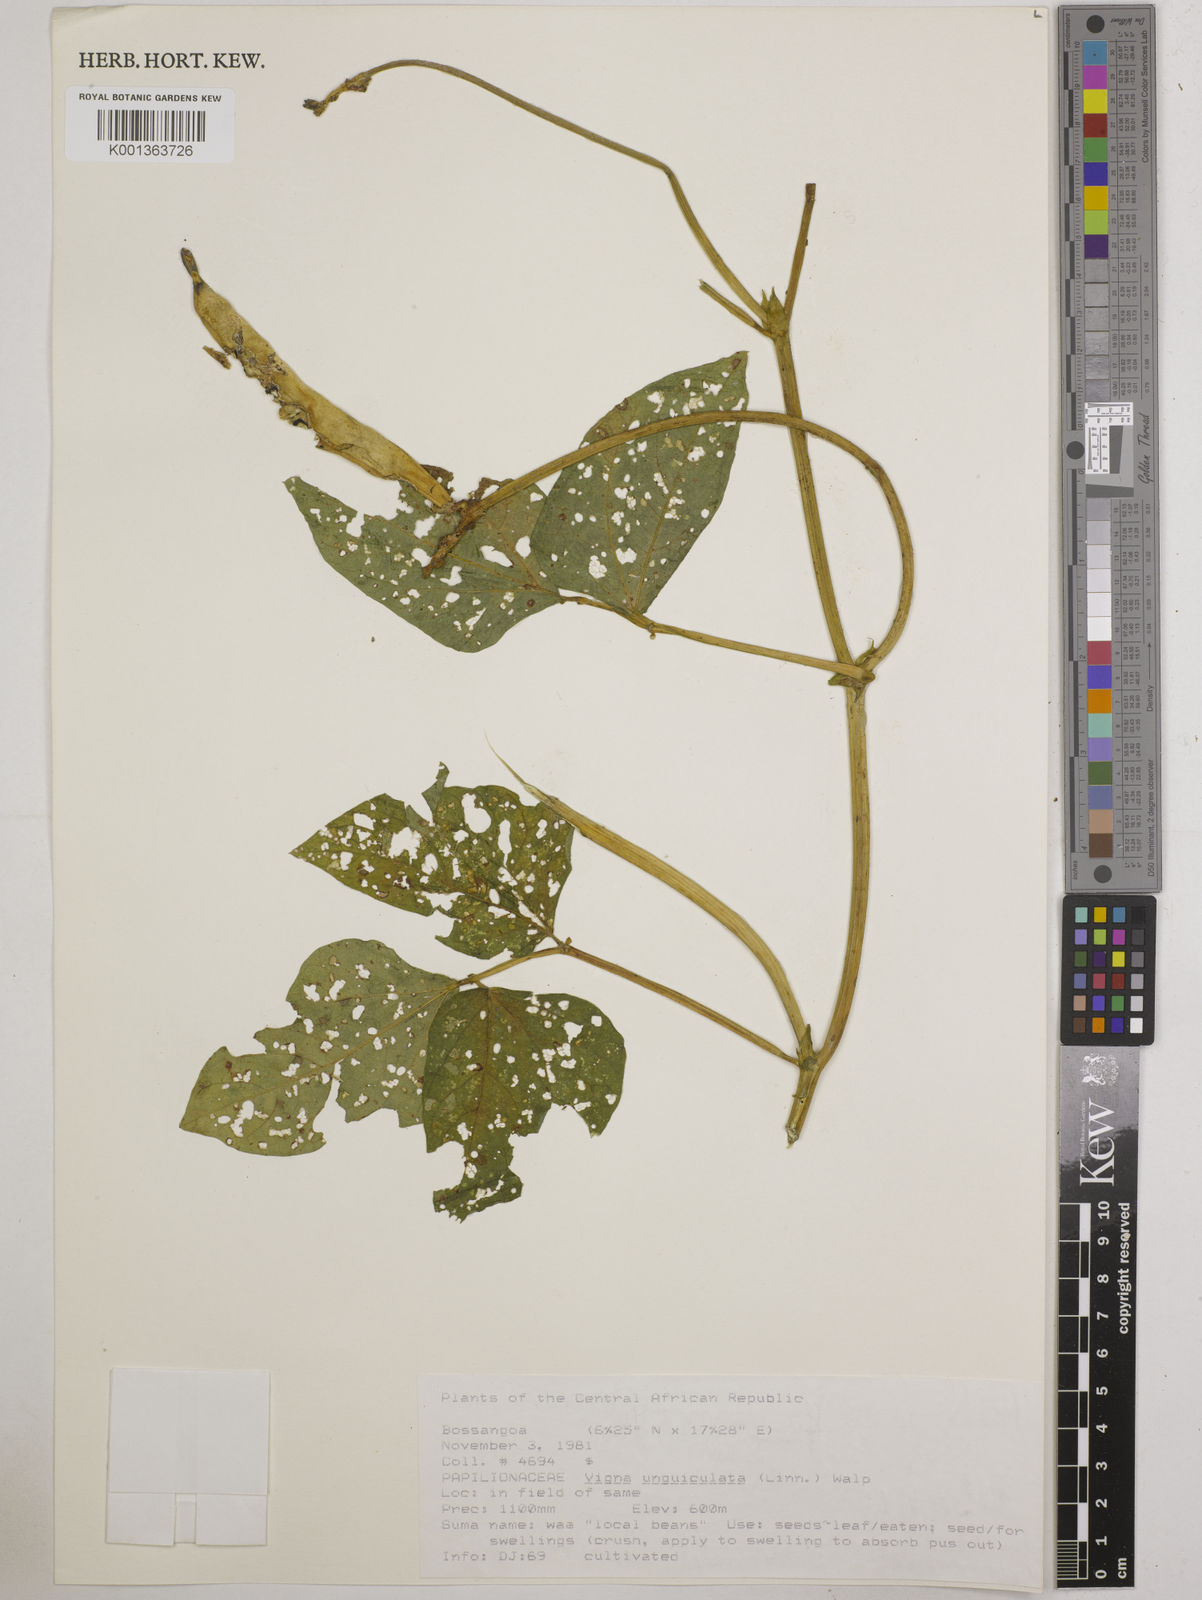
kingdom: Plantae
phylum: Tracheophyta
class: Magnoliopsida
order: Fabales
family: Fabaceae
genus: Vigna
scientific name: Vigna unguiculata
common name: Cowpea
